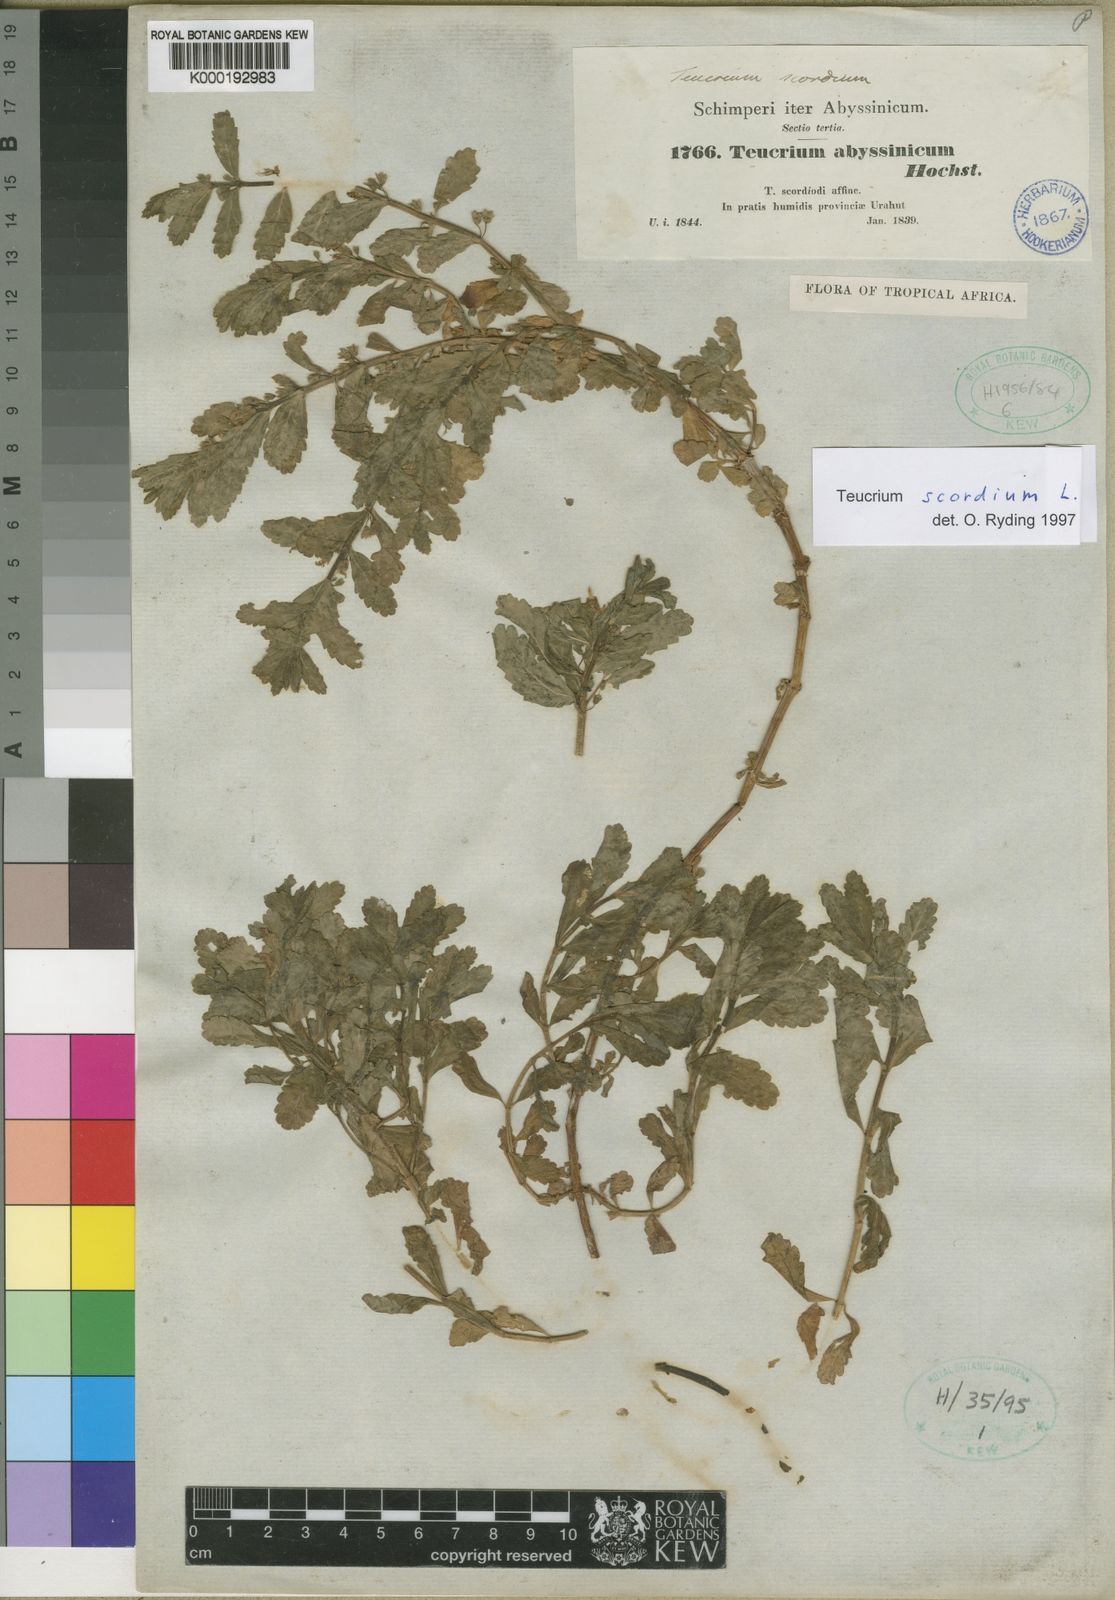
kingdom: Plantae
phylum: Tracheophyta
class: Magnoliopsida
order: Lamiales
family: Lamiaceae
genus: Teucrium
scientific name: Teucrium scordium
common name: Water germander
